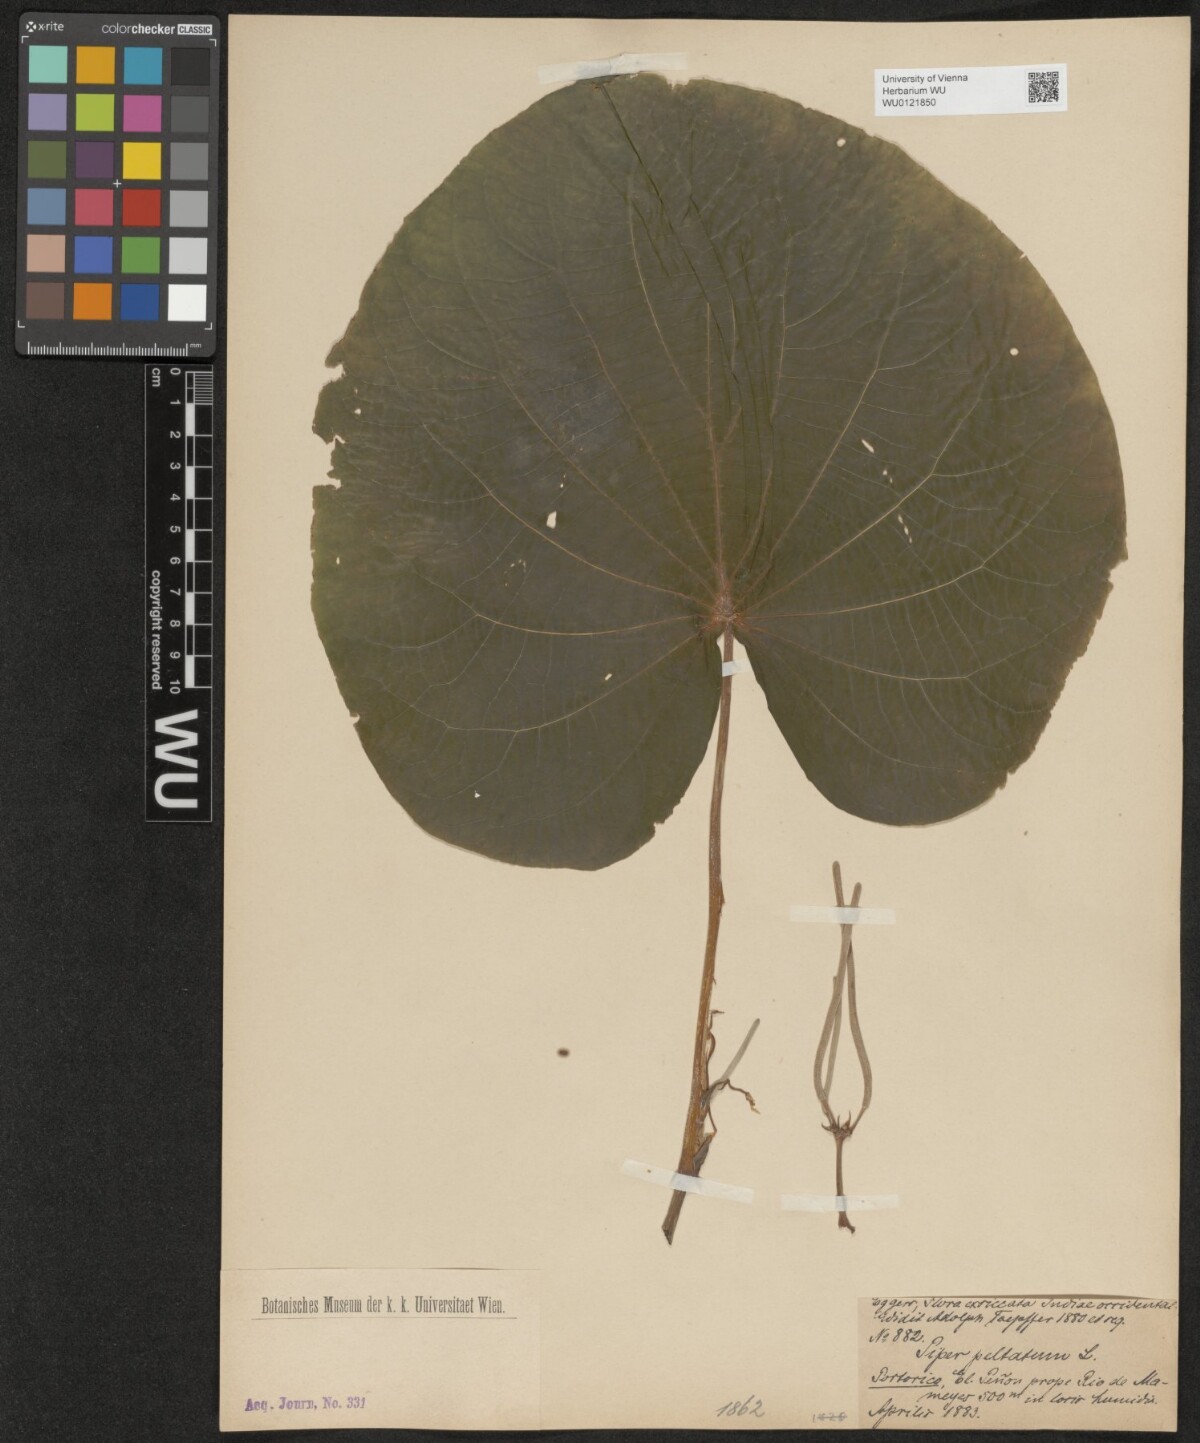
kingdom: Plantae
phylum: Tracheophyta
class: Magnoliopsida
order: Piperales
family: Piperaceae
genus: Piper
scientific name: Piper peltatum
